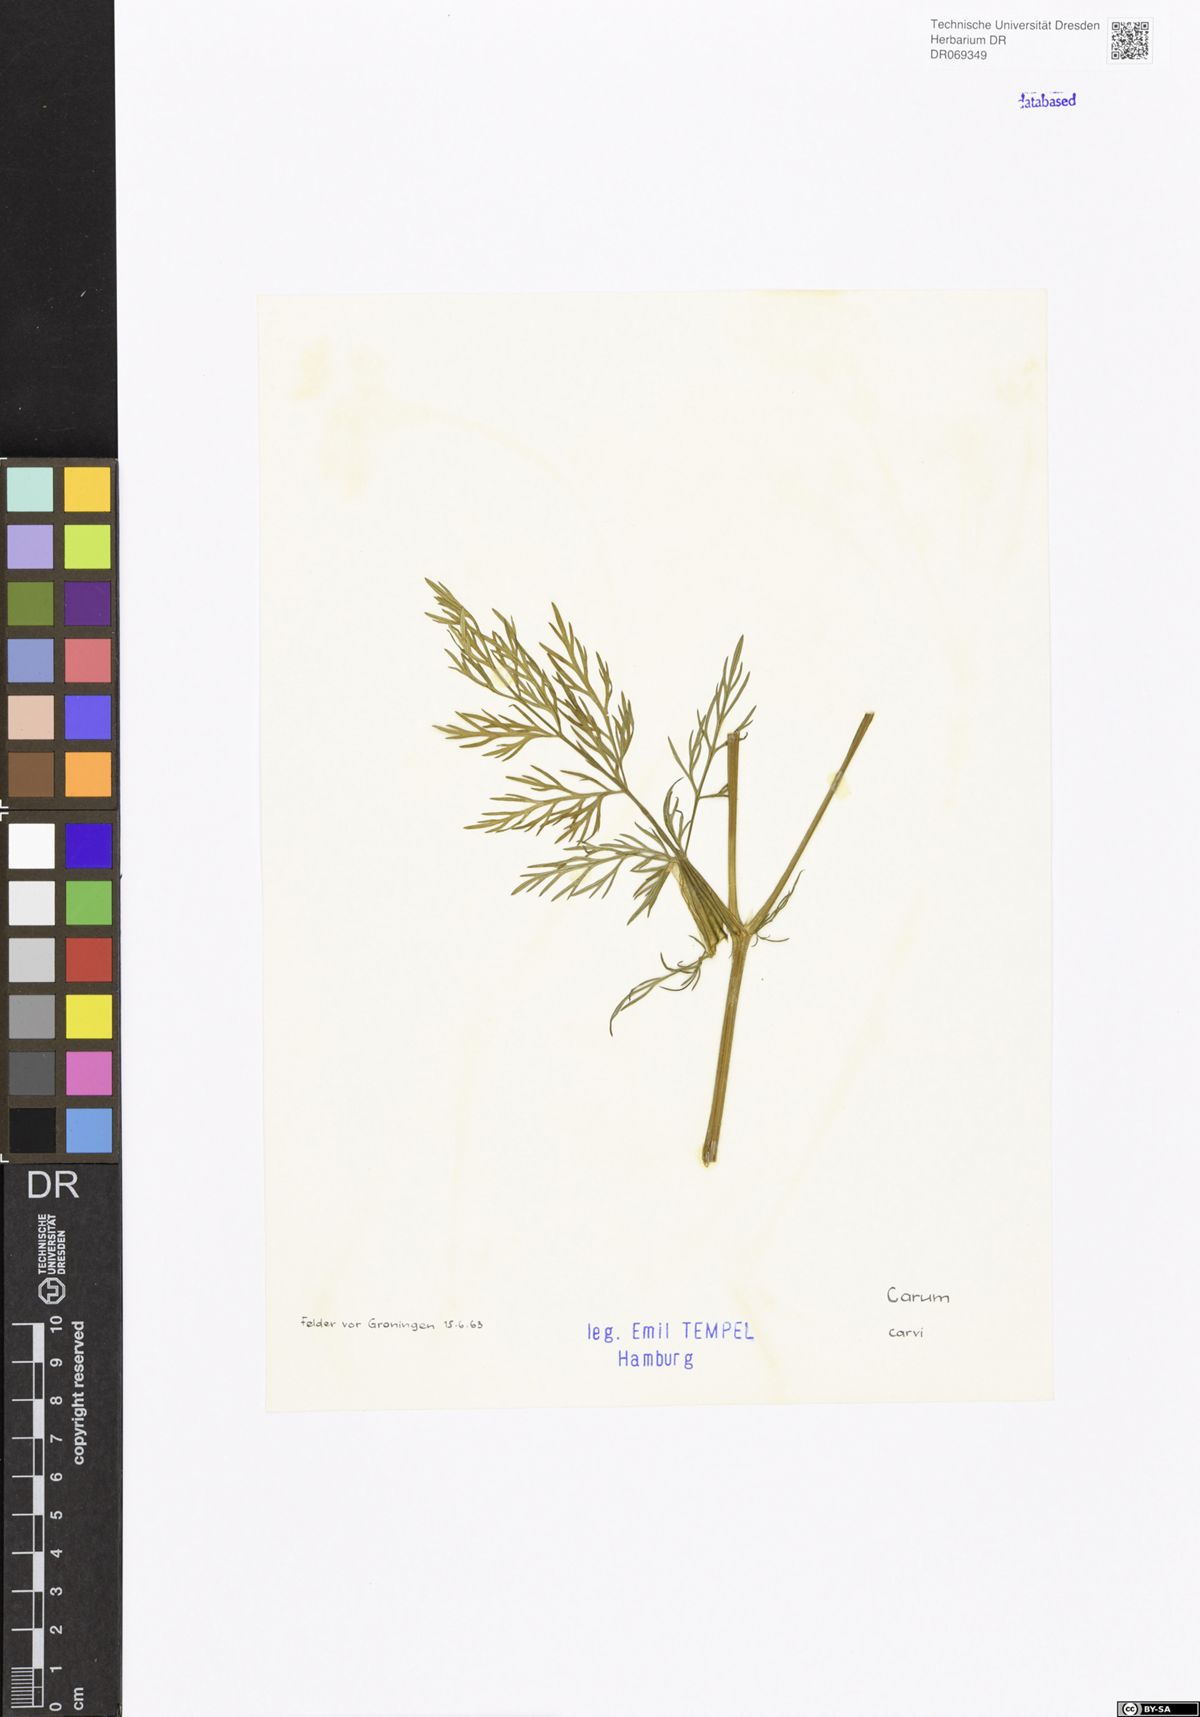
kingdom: Plantae
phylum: Tracheophyta
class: Magnoliopsida
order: Apiales
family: Apiaceae
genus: Carum
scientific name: Carum carvi
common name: Caraway
